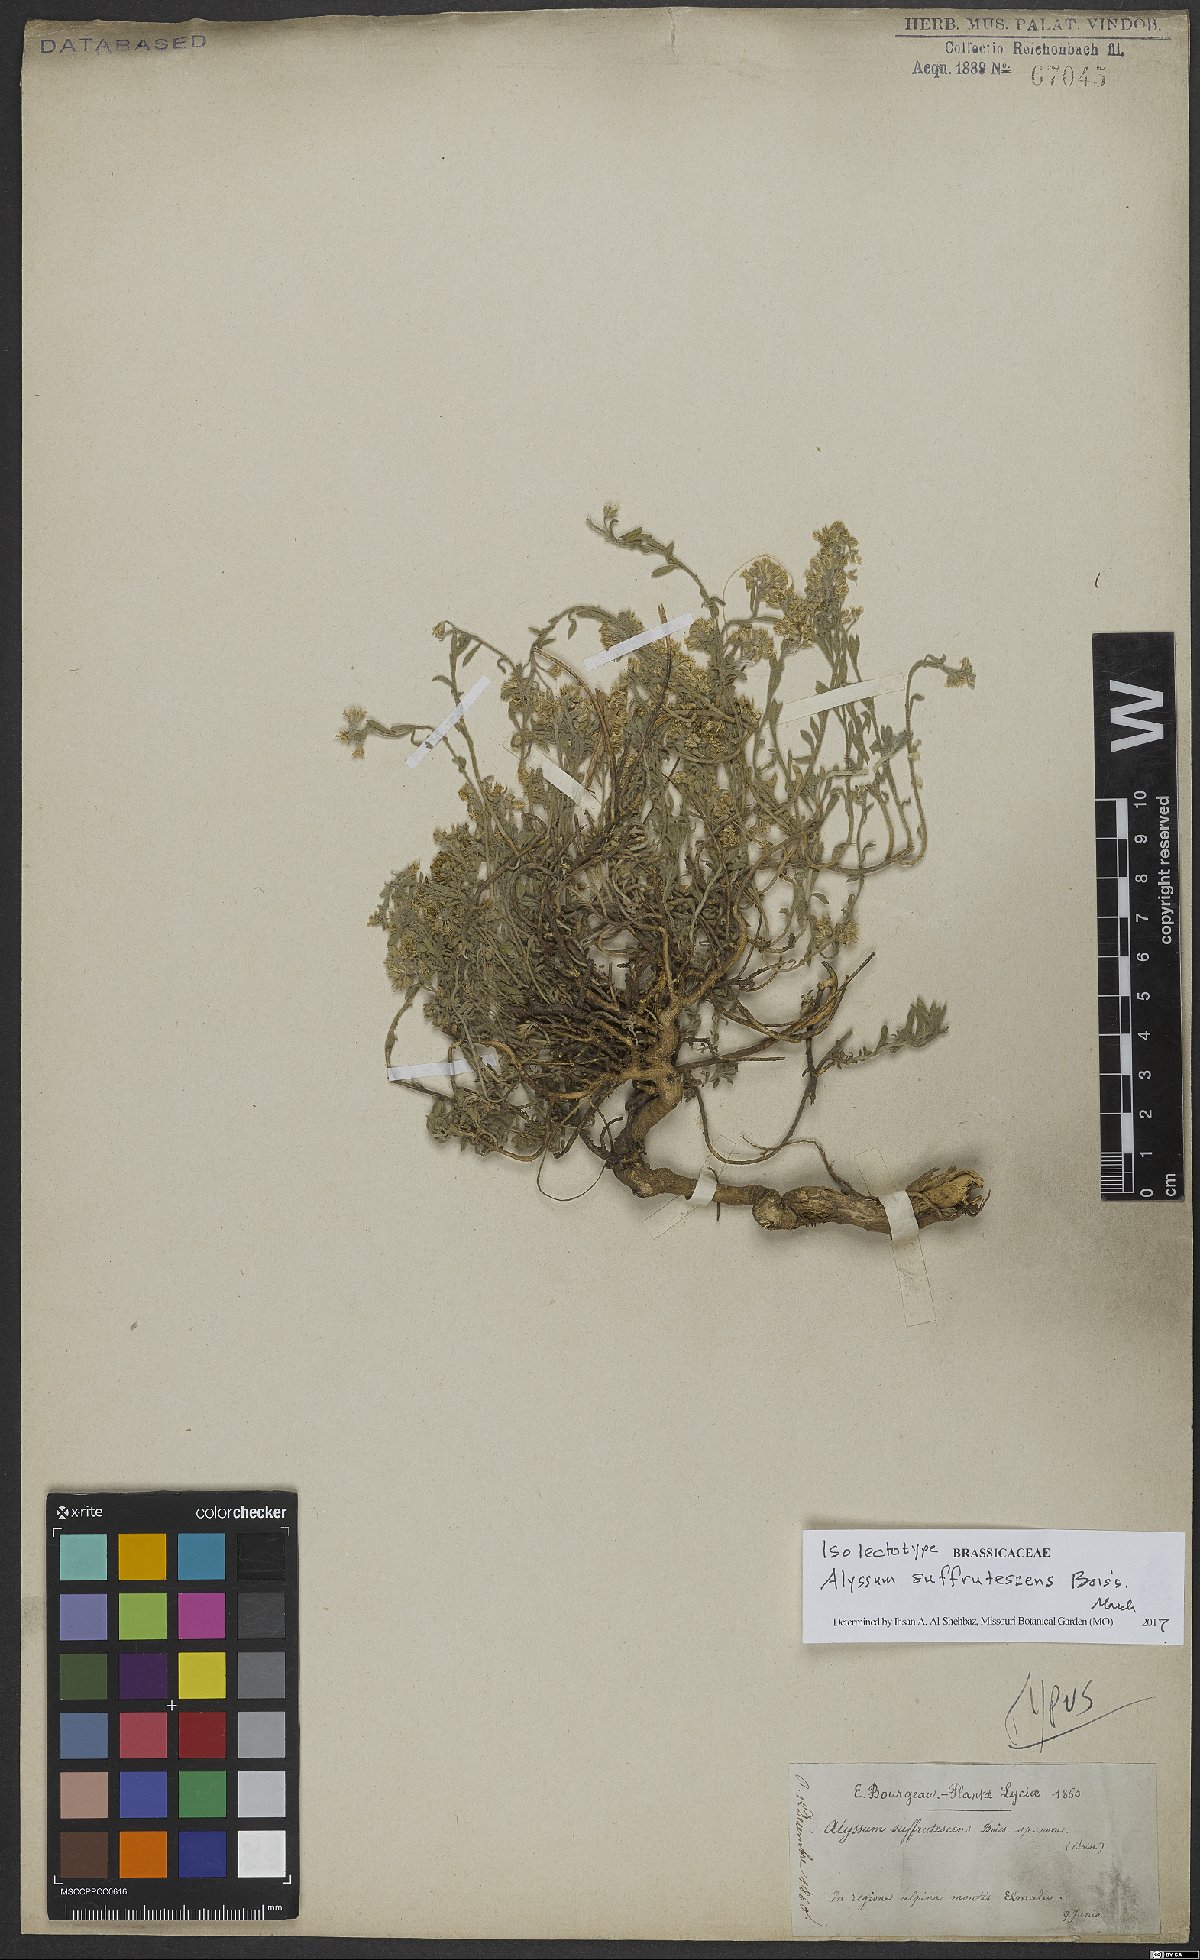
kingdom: Plantae
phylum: Tracheophyta
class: Magnoliopsida
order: Brassicales
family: Brassicaceae
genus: Alyssum
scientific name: Alyssum erosulum
